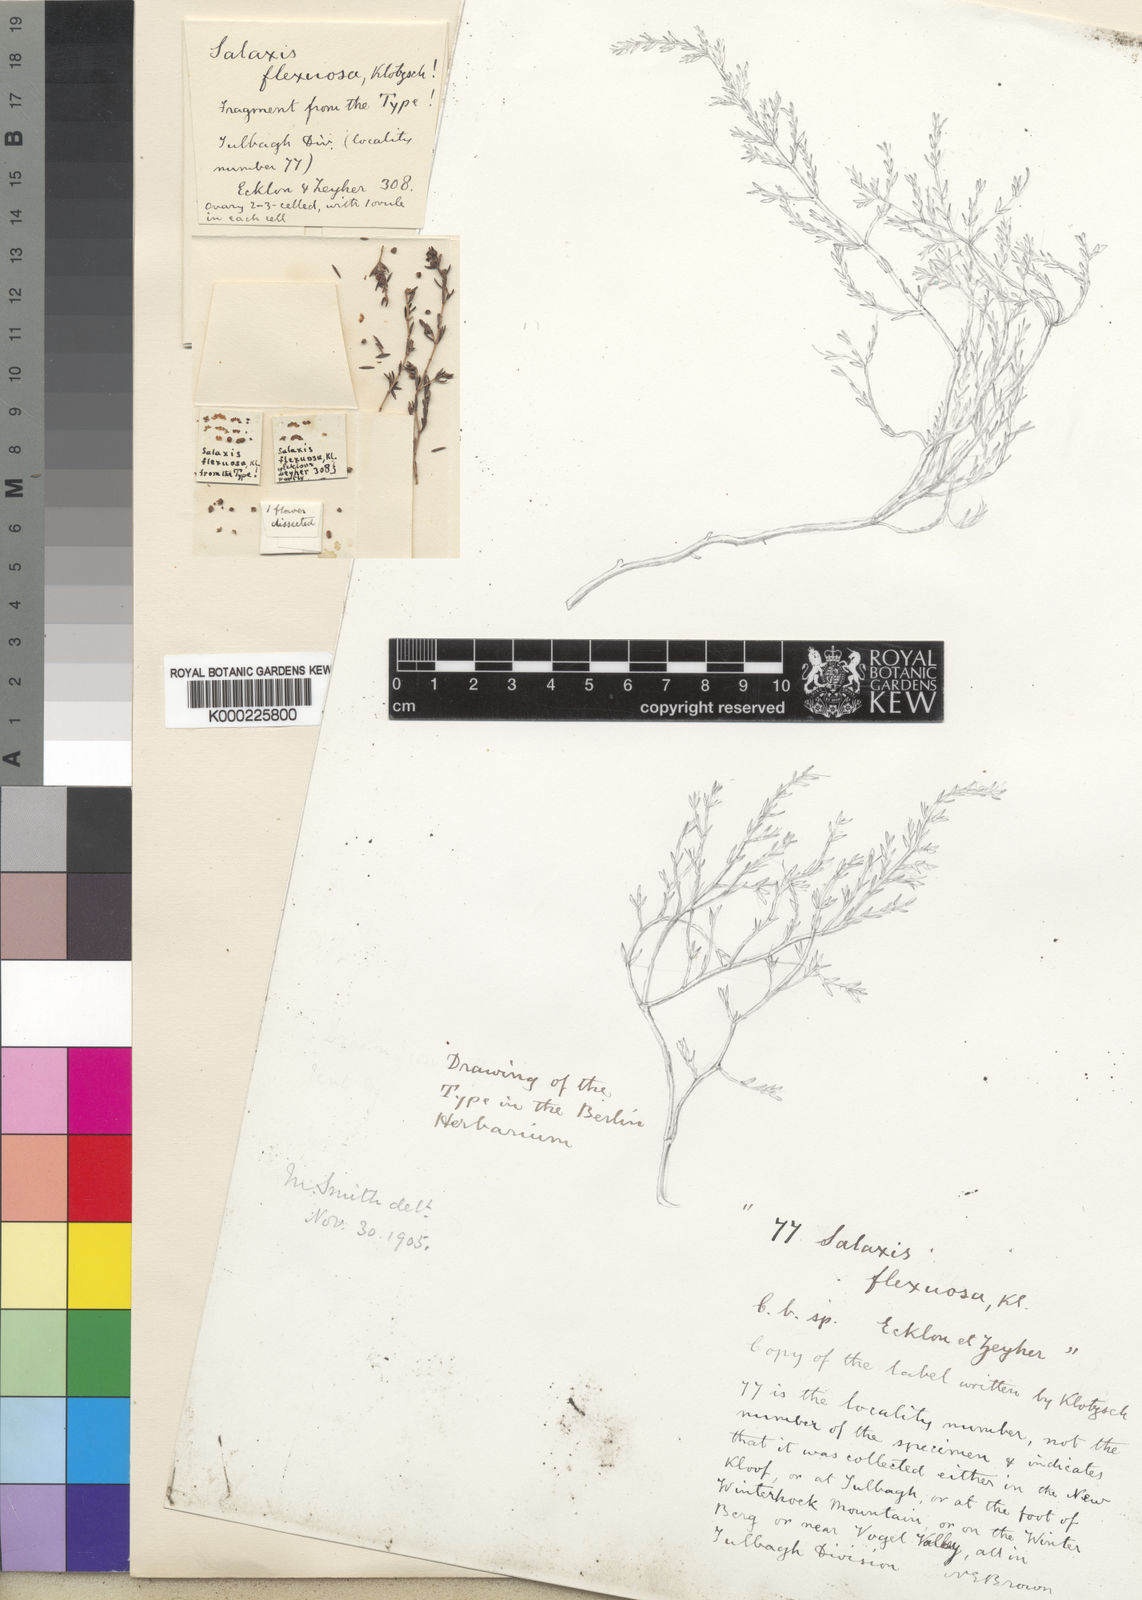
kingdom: Plantae
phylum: Tracheophyta
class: Magnoliopsida
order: Ericales
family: Ericaceae
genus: Erica
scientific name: Erica axillaris
